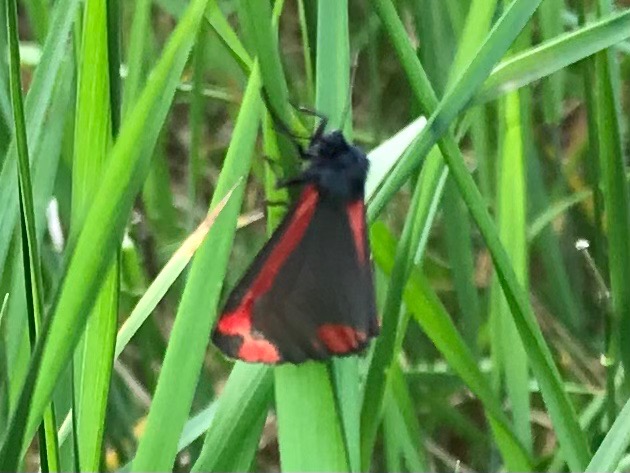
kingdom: Animalia
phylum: Arthropoda
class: Insecta
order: Lepidoptera
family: Erebidae
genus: Tyria
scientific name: Tyria jacobaeae
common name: Blodplet
